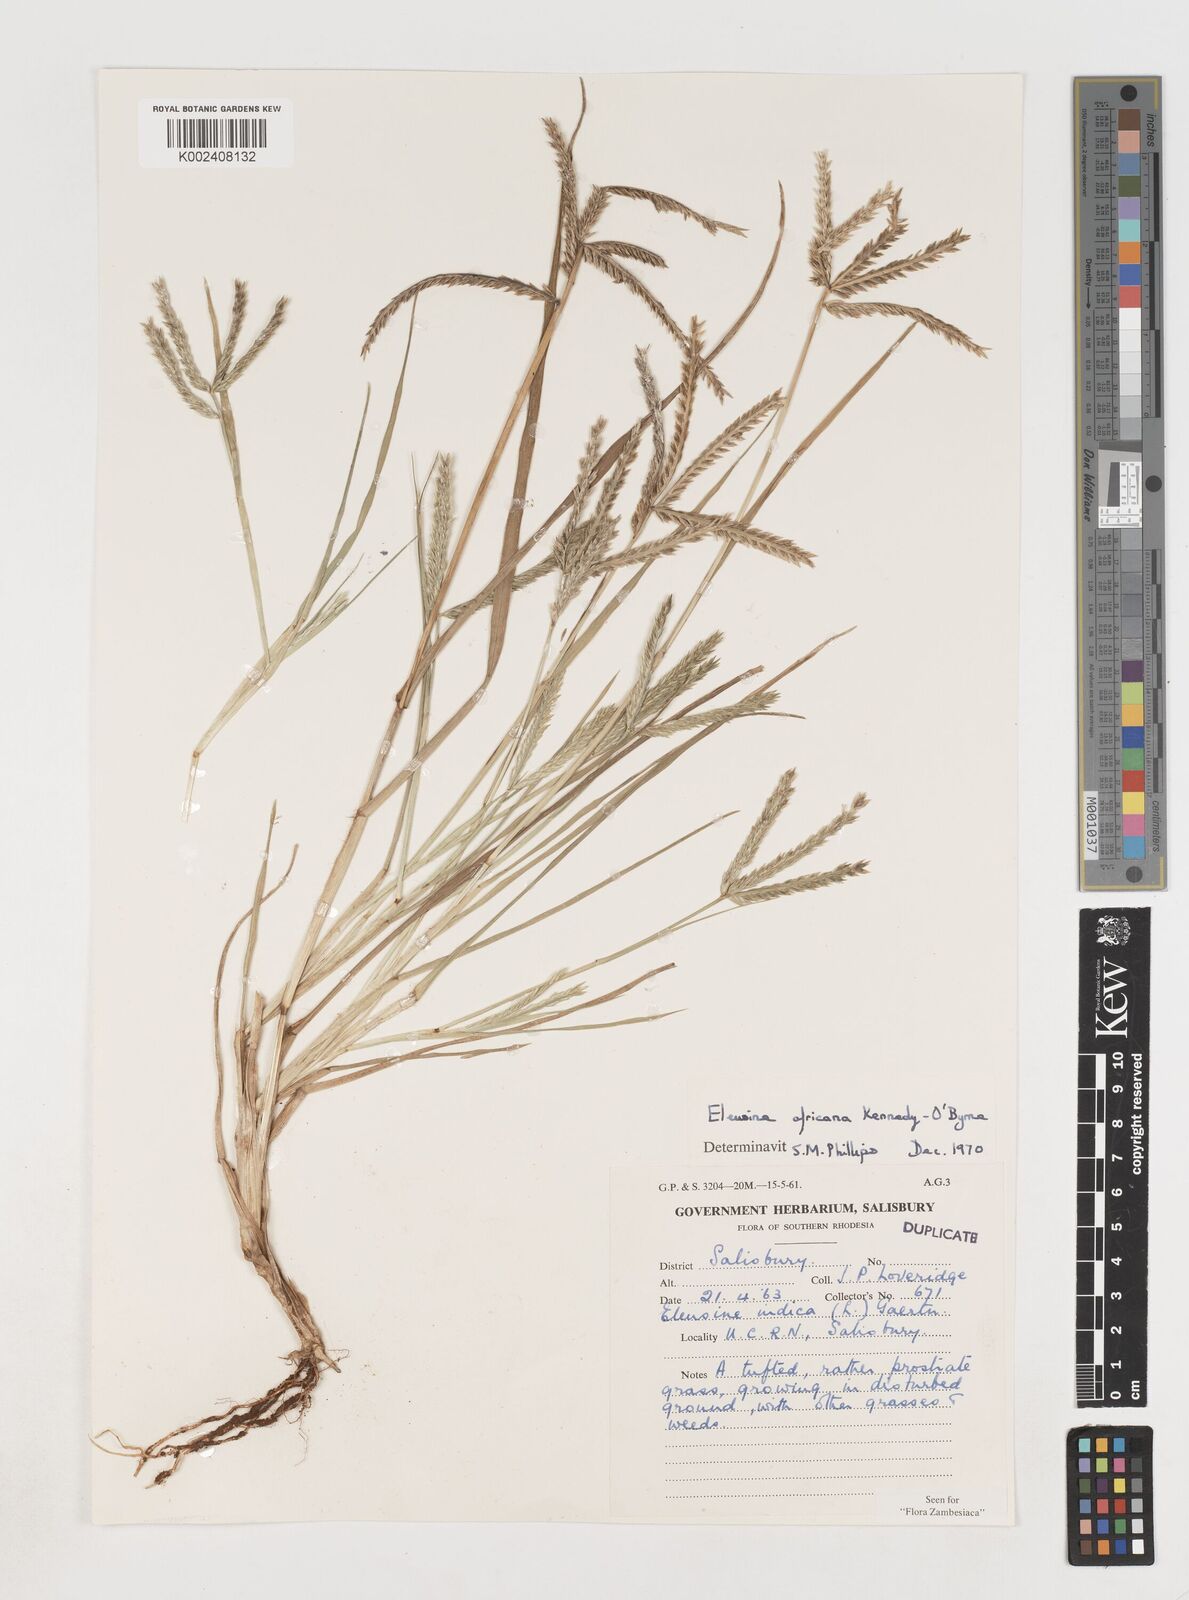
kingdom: Plantae
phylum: Tracheophyta
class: Liliopsida
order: Poales
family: Poaceae
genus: Eleusine
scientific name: Eleusine africana
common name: Wild african finger millet
